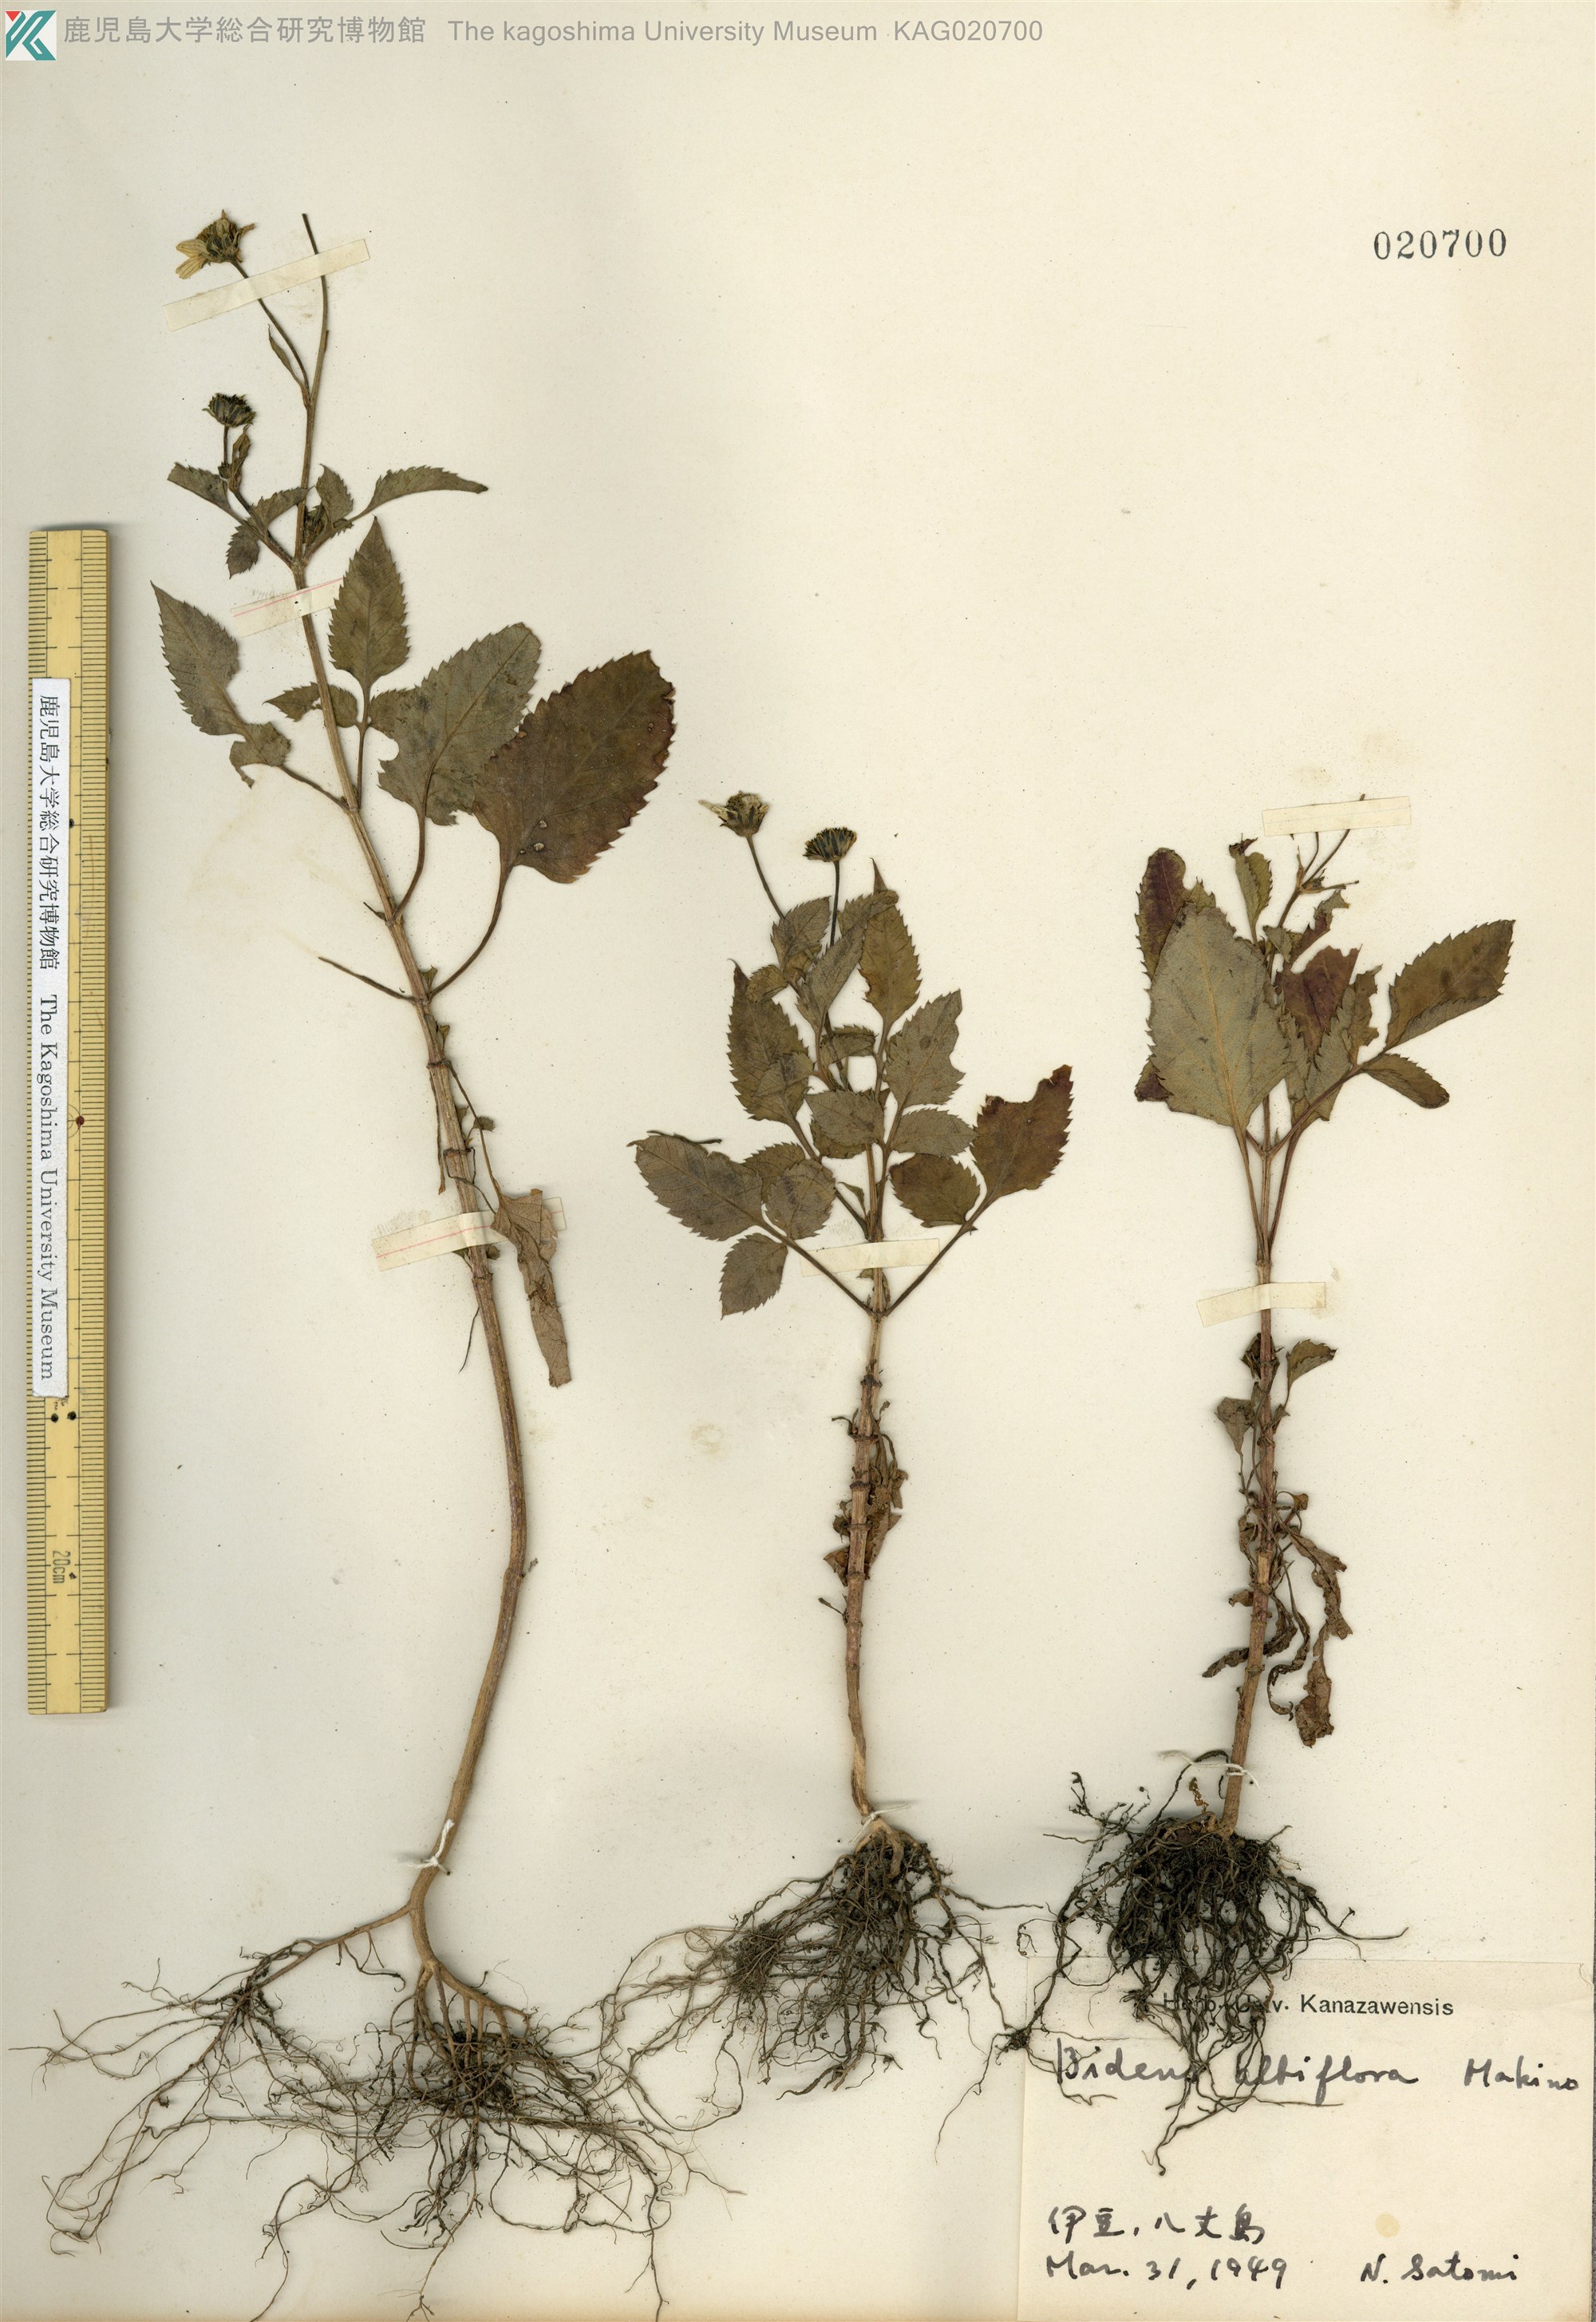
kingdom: Plantae
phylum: Tracheophyta
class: Magnoliopsida
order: Asterales
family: Asteraceae
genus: Bidens
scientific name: Bidens pilosa
